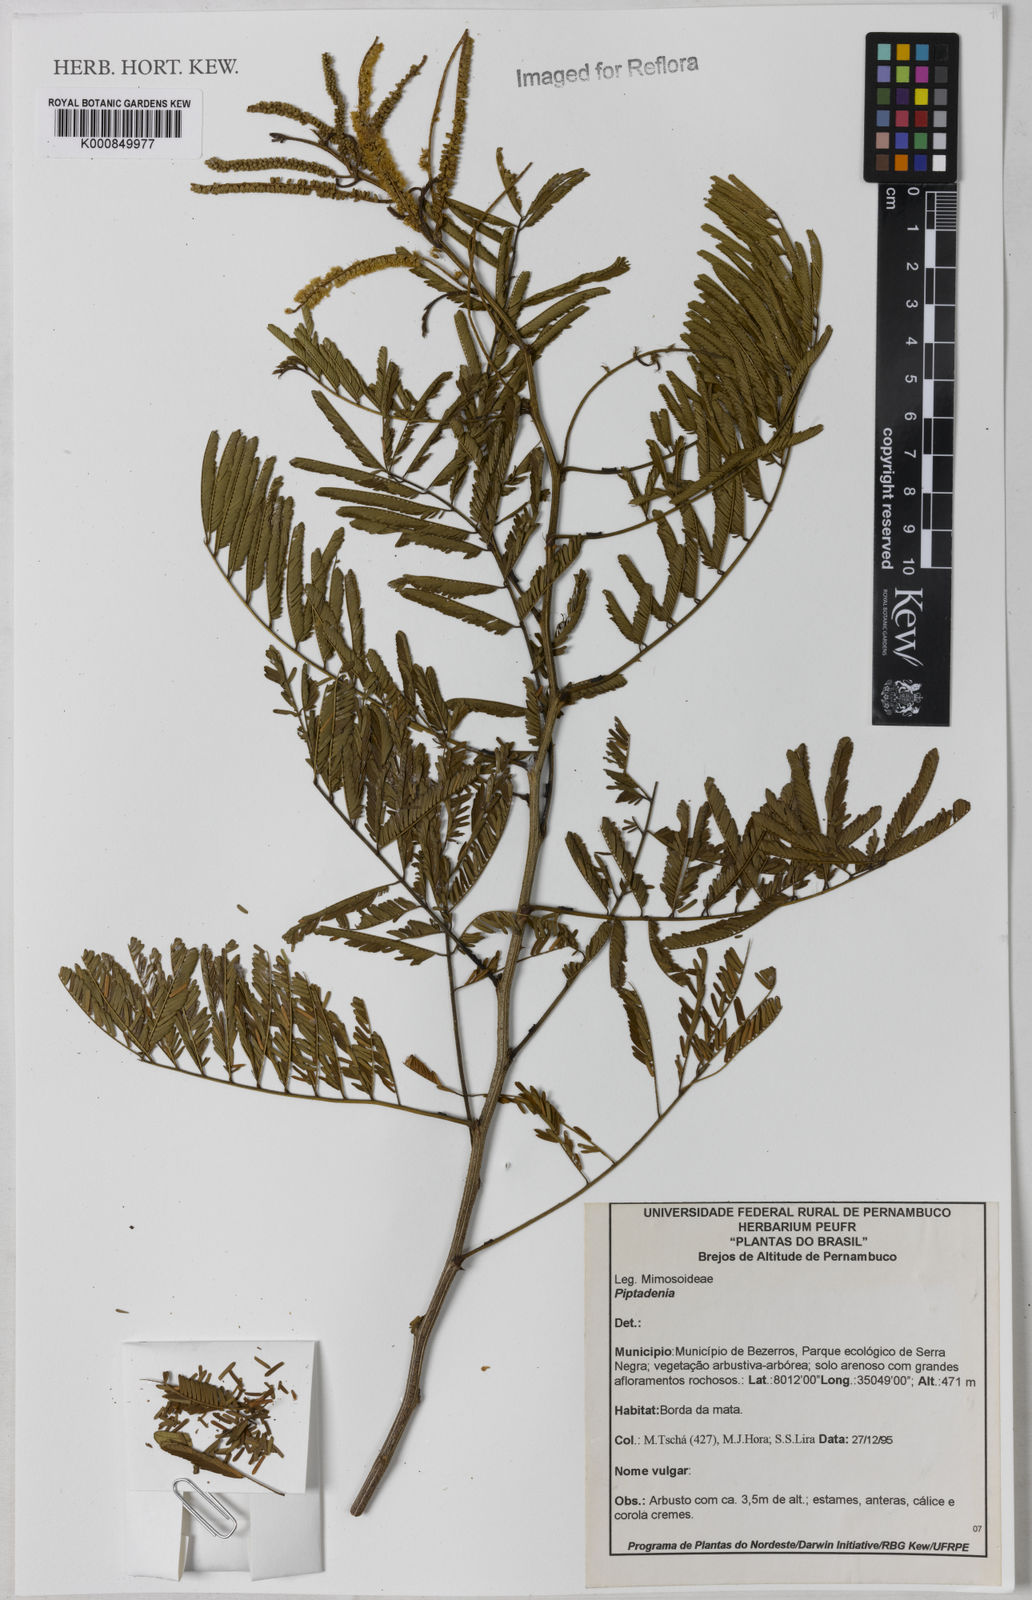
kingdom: Plantae
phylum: Tracheophyta
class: Magnoliopsida
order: Fabales
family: Fabaceae
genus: Piptadenia
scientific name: Piptadenia
